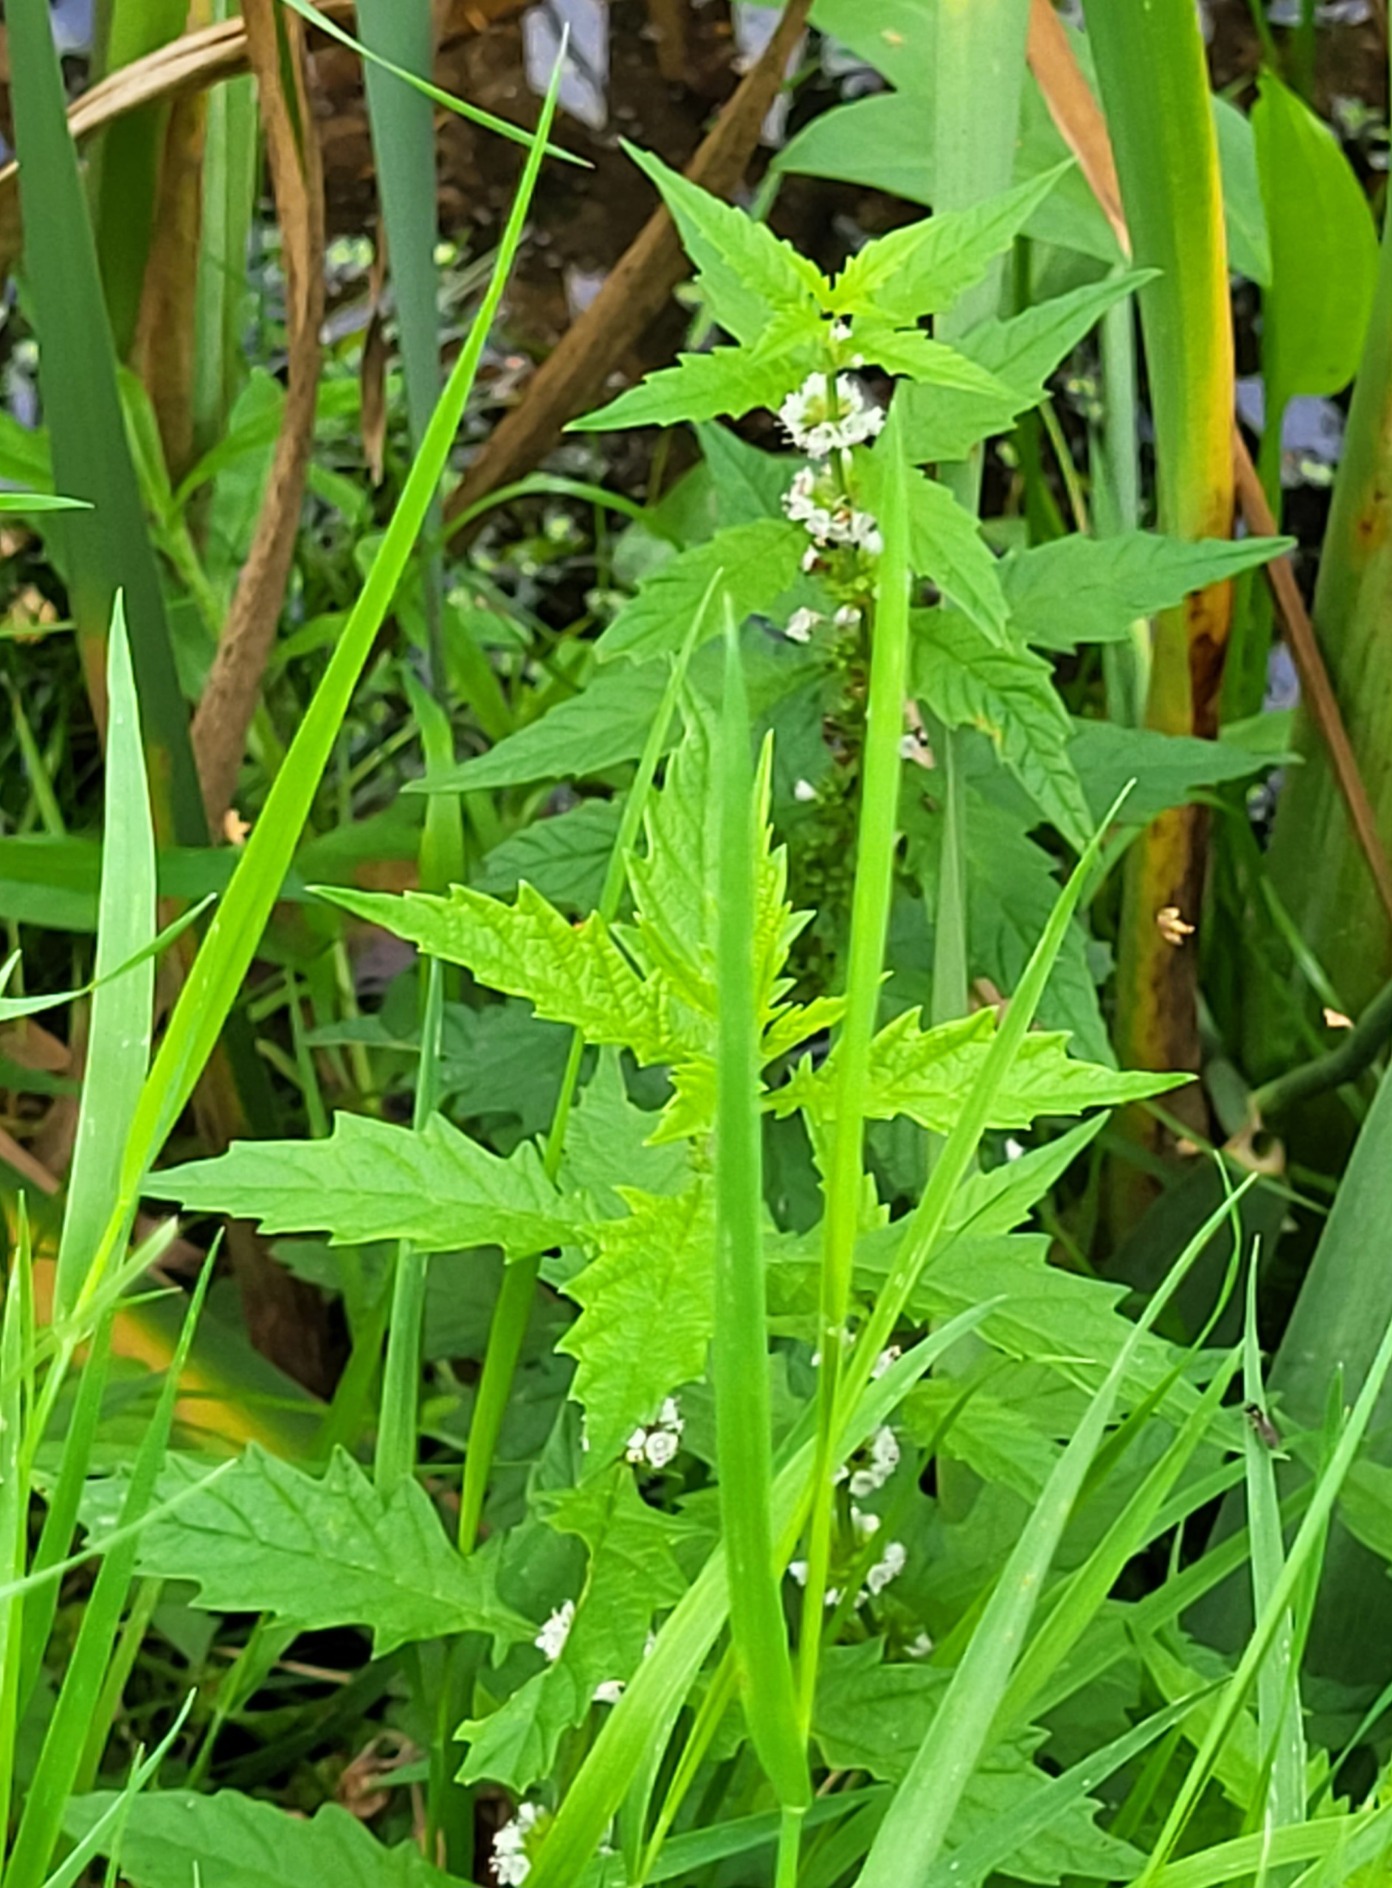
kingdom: Plantae
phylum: Tracheophyta
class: Magnoliopsida
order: Lamiales
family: Lamiaceae
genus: Lycopus
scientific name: Lycopus europaeus
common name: Sværtevæld
